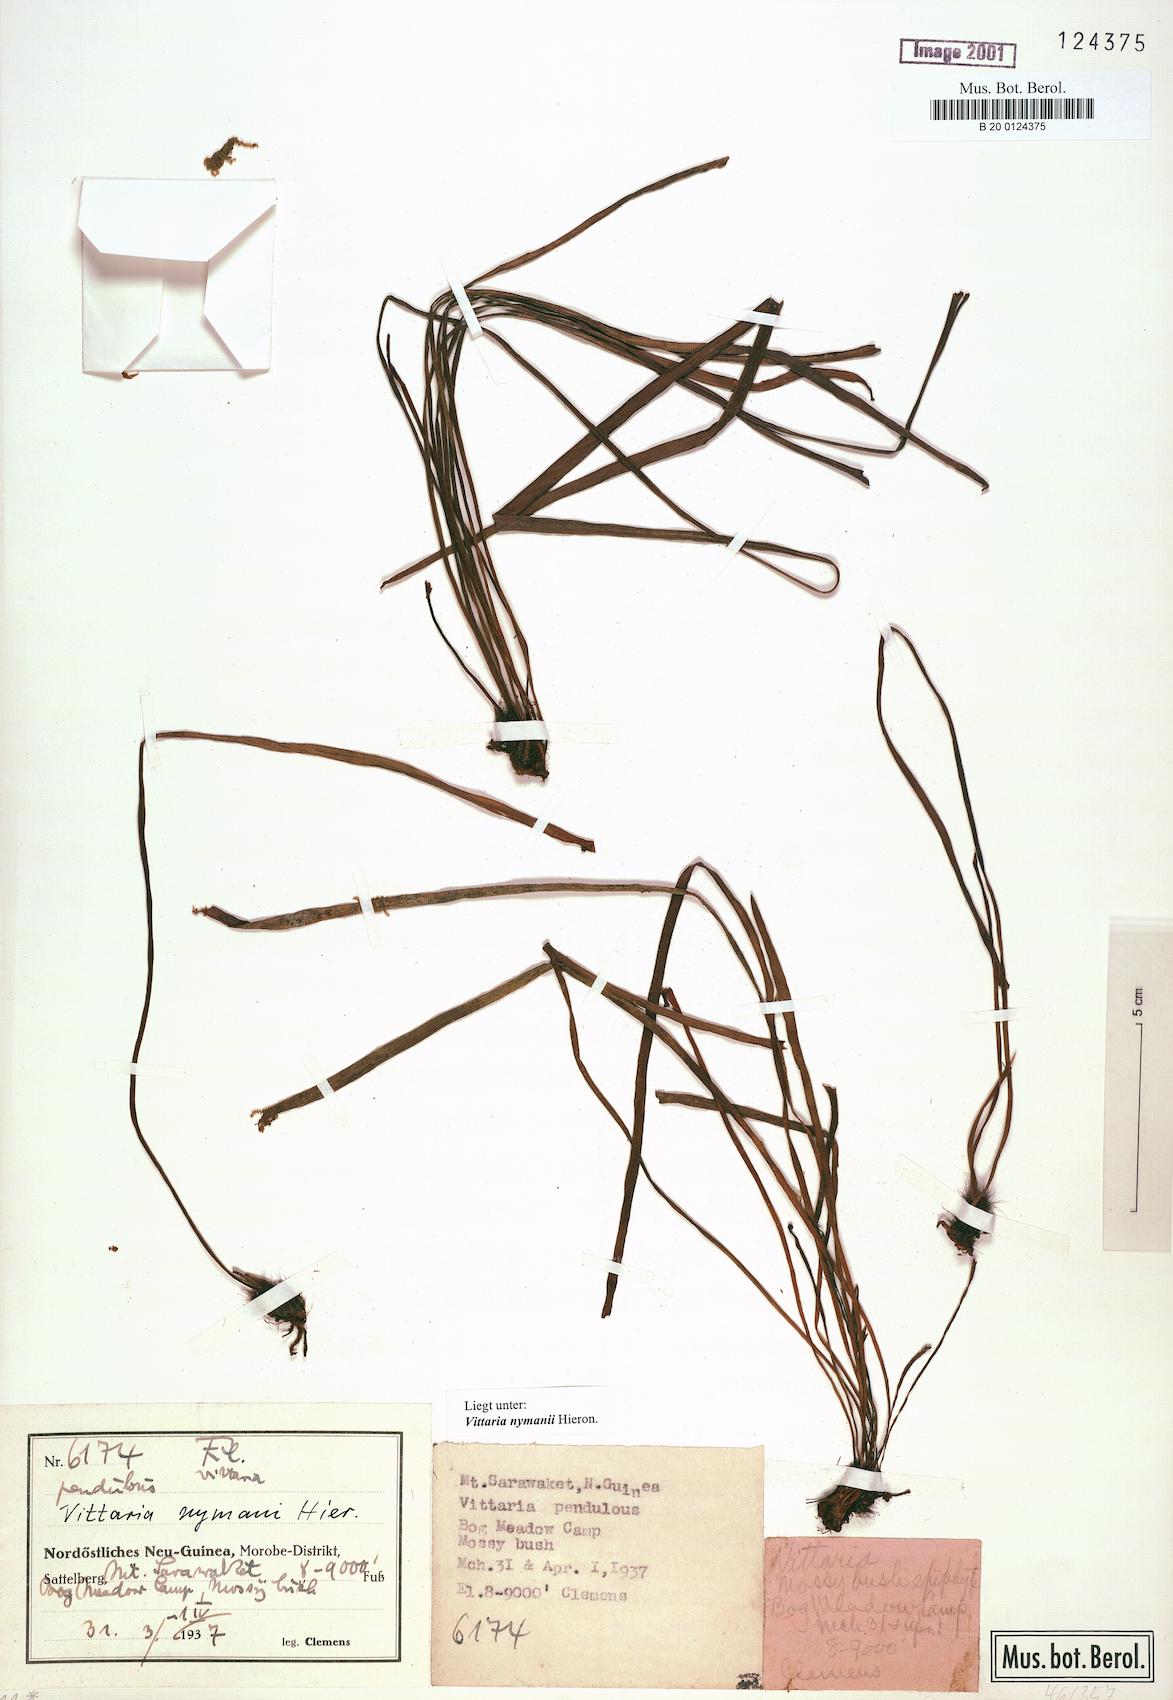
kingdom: Plantae
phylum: Tracheophyta
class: Polypodiopsida
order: Polypodiales
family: Pteridaceae
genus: Haplopteris
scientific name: Haplopteris elongata
